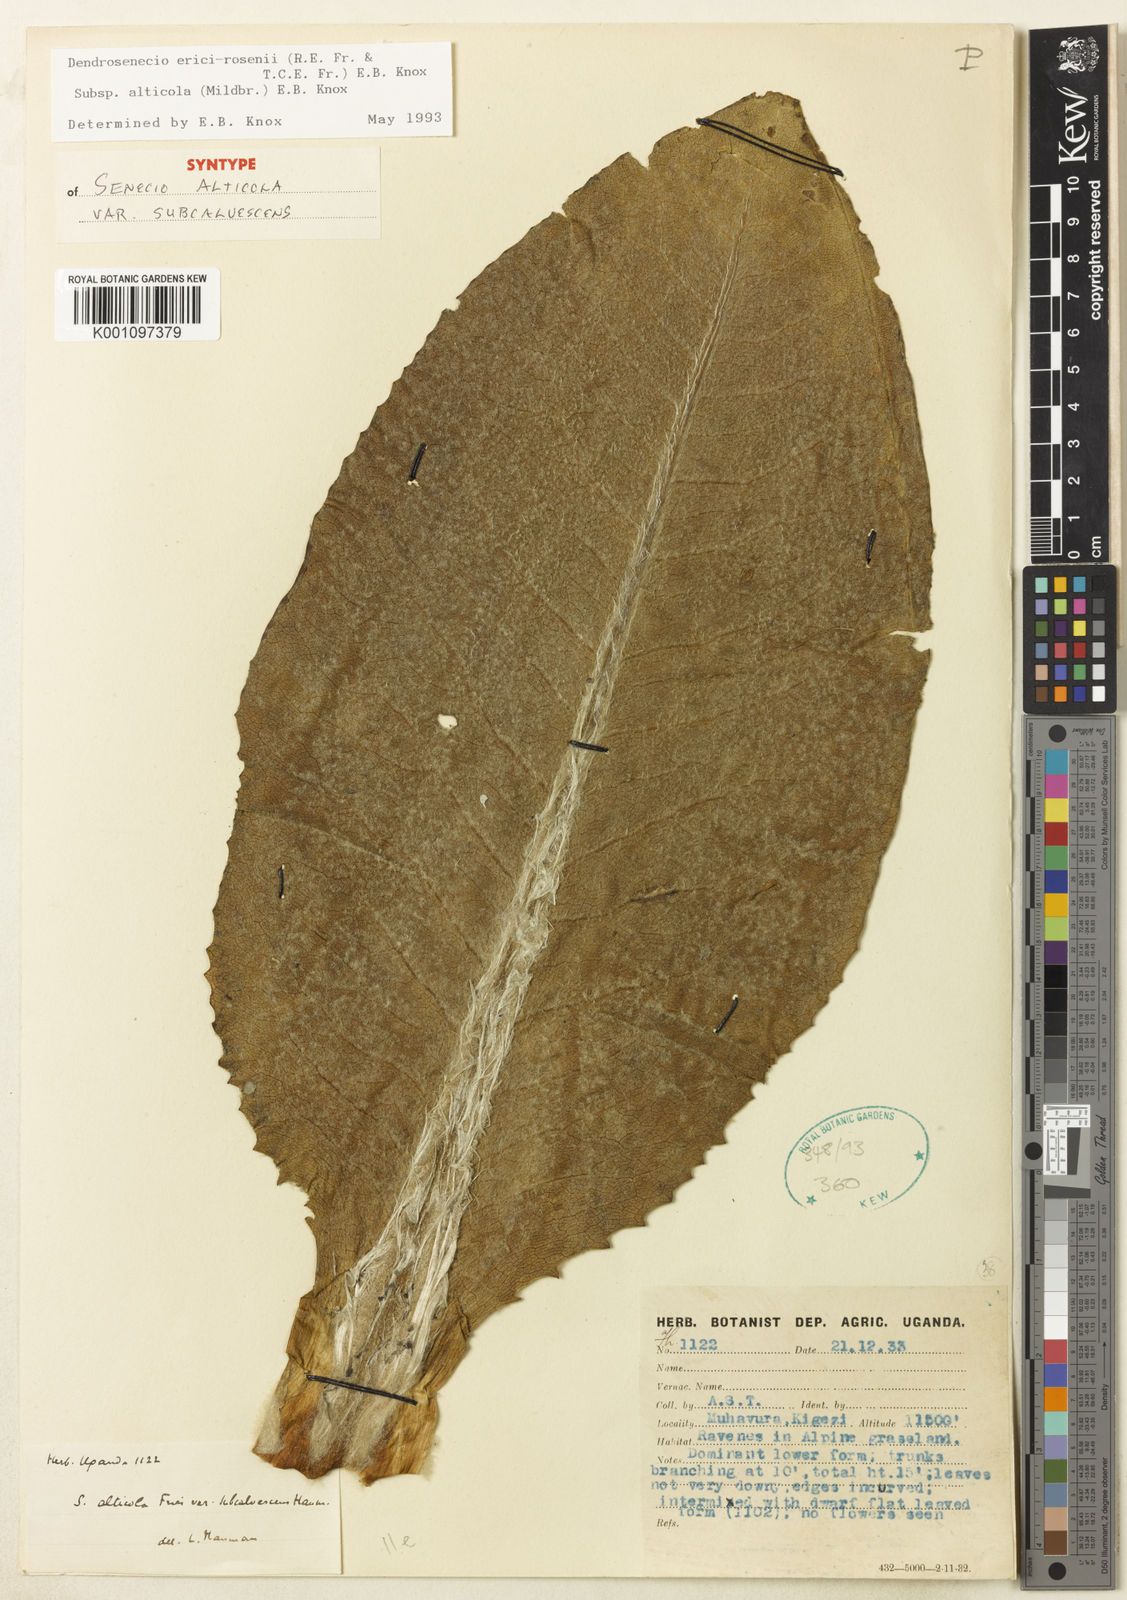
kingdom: Plantae
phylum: Tracheophyta
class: Magnoliopsida
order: Asterales
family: Asteraceae
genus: Dendrosenecio
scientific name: Dendrosenecio erici-rosenii
